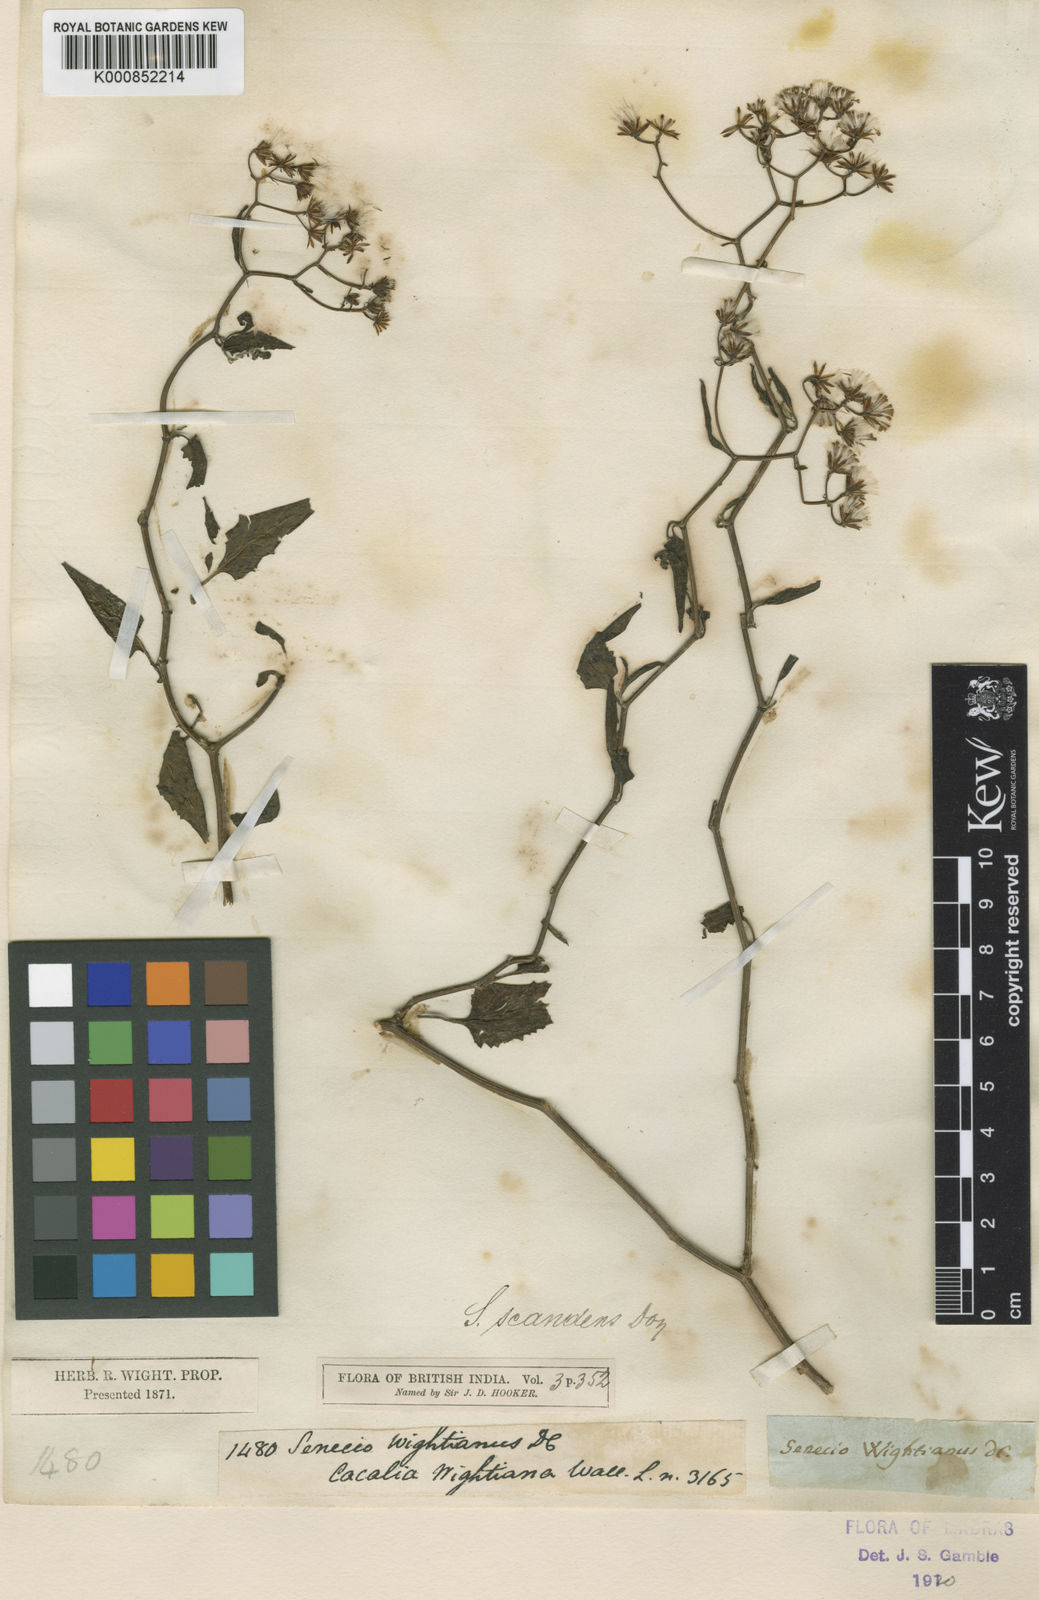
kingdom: Plantae
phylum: Tracheophyta
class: Magnoliopsida
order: Asterales
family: Asteraceae
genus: Senecio
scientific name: Senecio scandens
